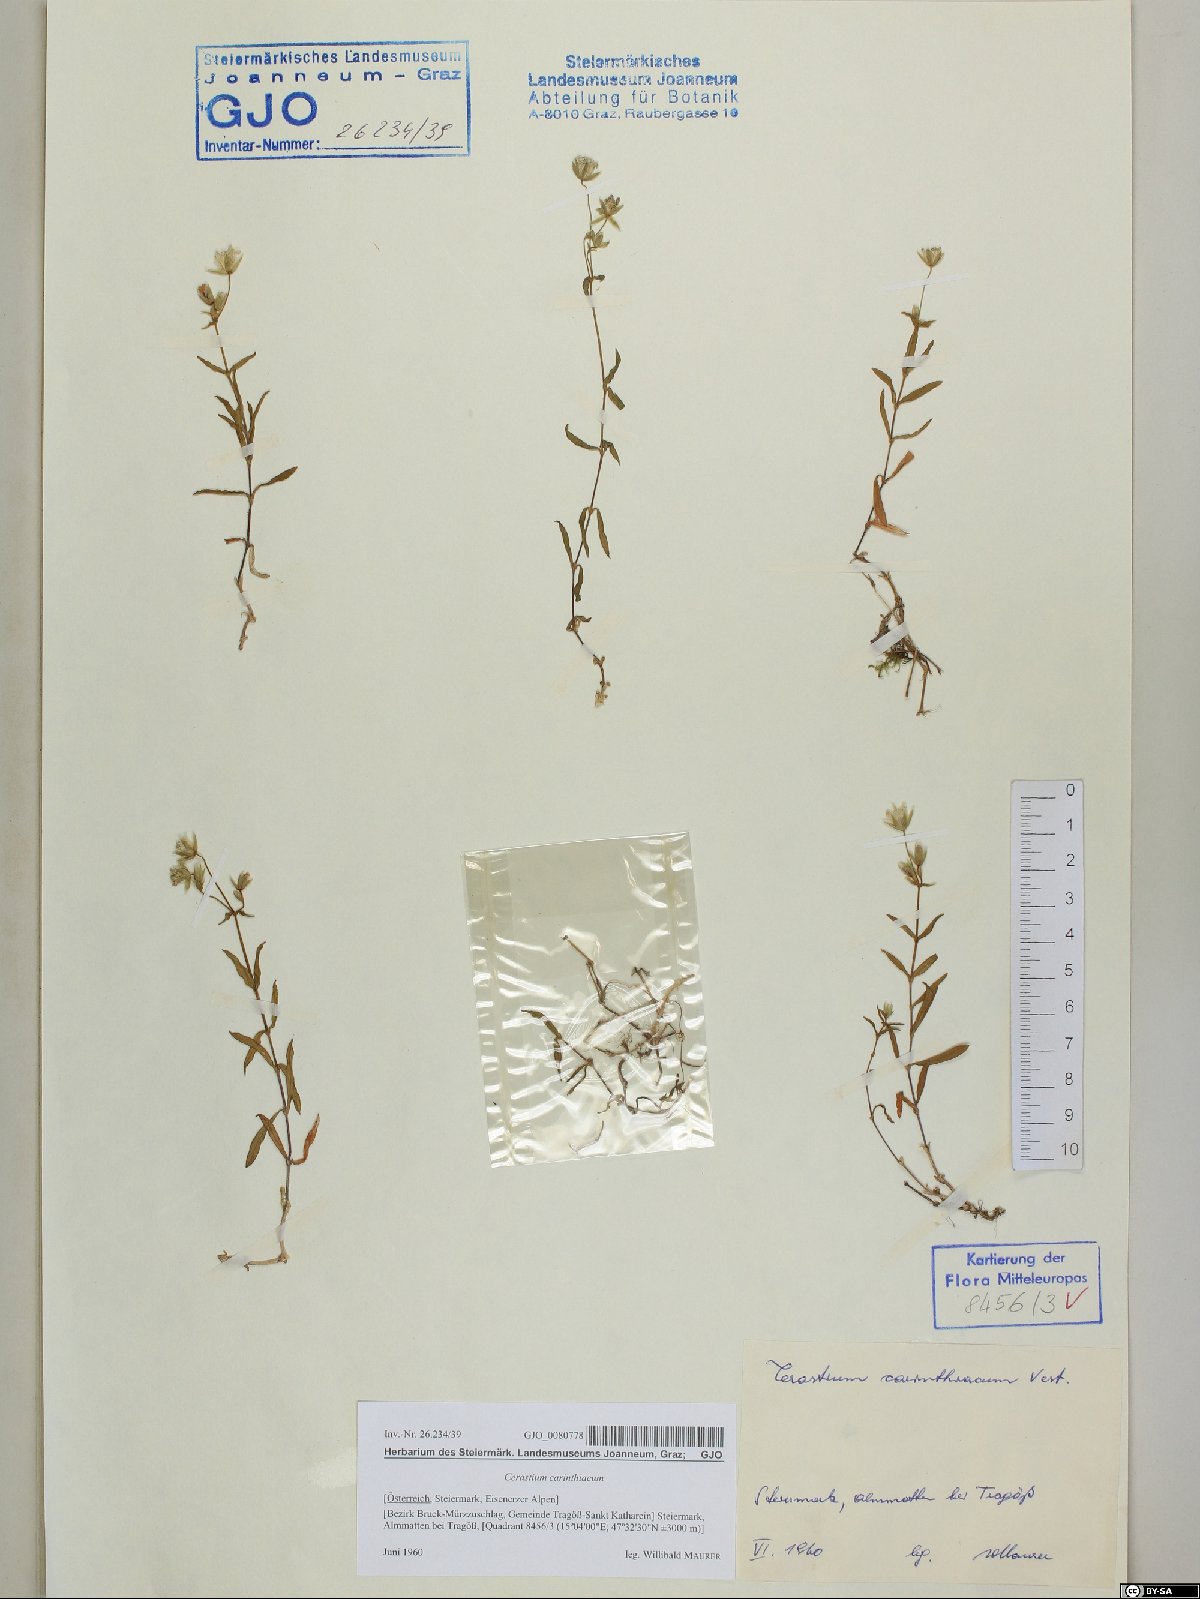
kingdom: Plantae
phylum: Tracheophyta
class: Magnoliopsida
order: Caryophyllales
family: Caryophyllaceae
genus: Cerastium
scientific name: Cerastium carinthiacum
